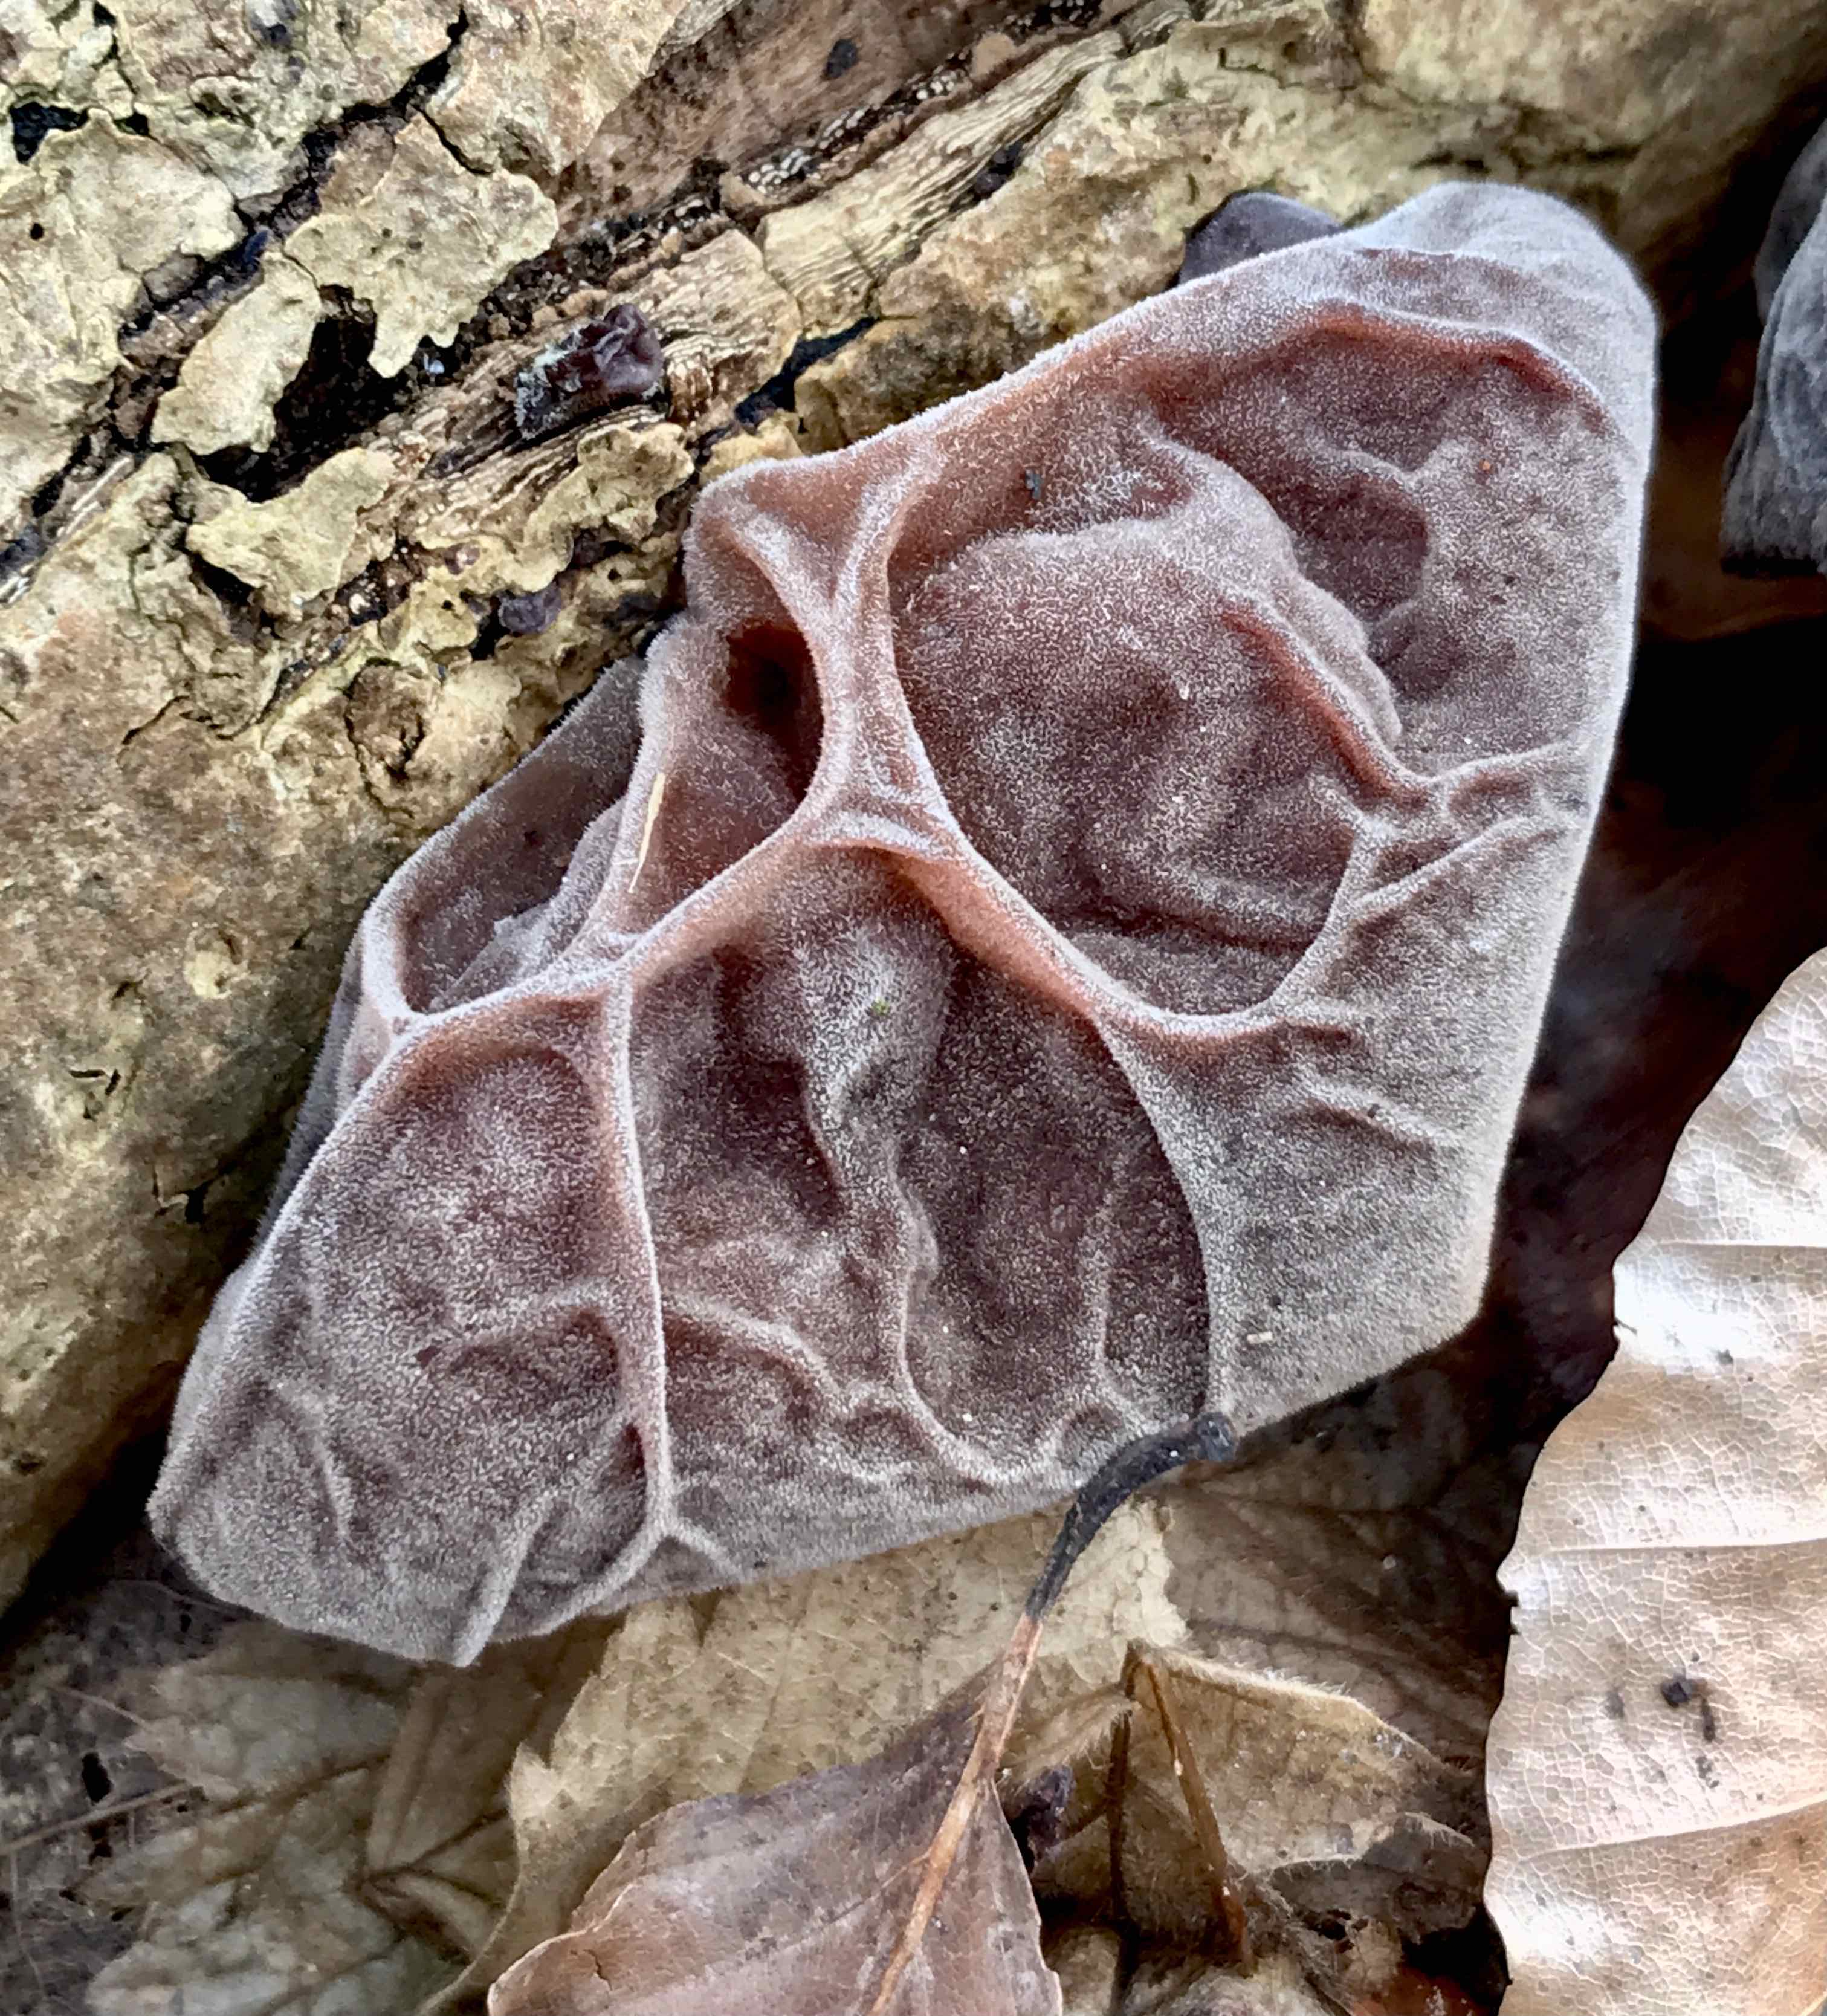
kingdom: Fungi
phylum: Basidiomycota
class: Agaricomycetes
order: Auriculariales
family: Auriculariaceae
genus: Auricularia
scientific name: Auricularia auricula-judae
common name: almindelig judasøre
